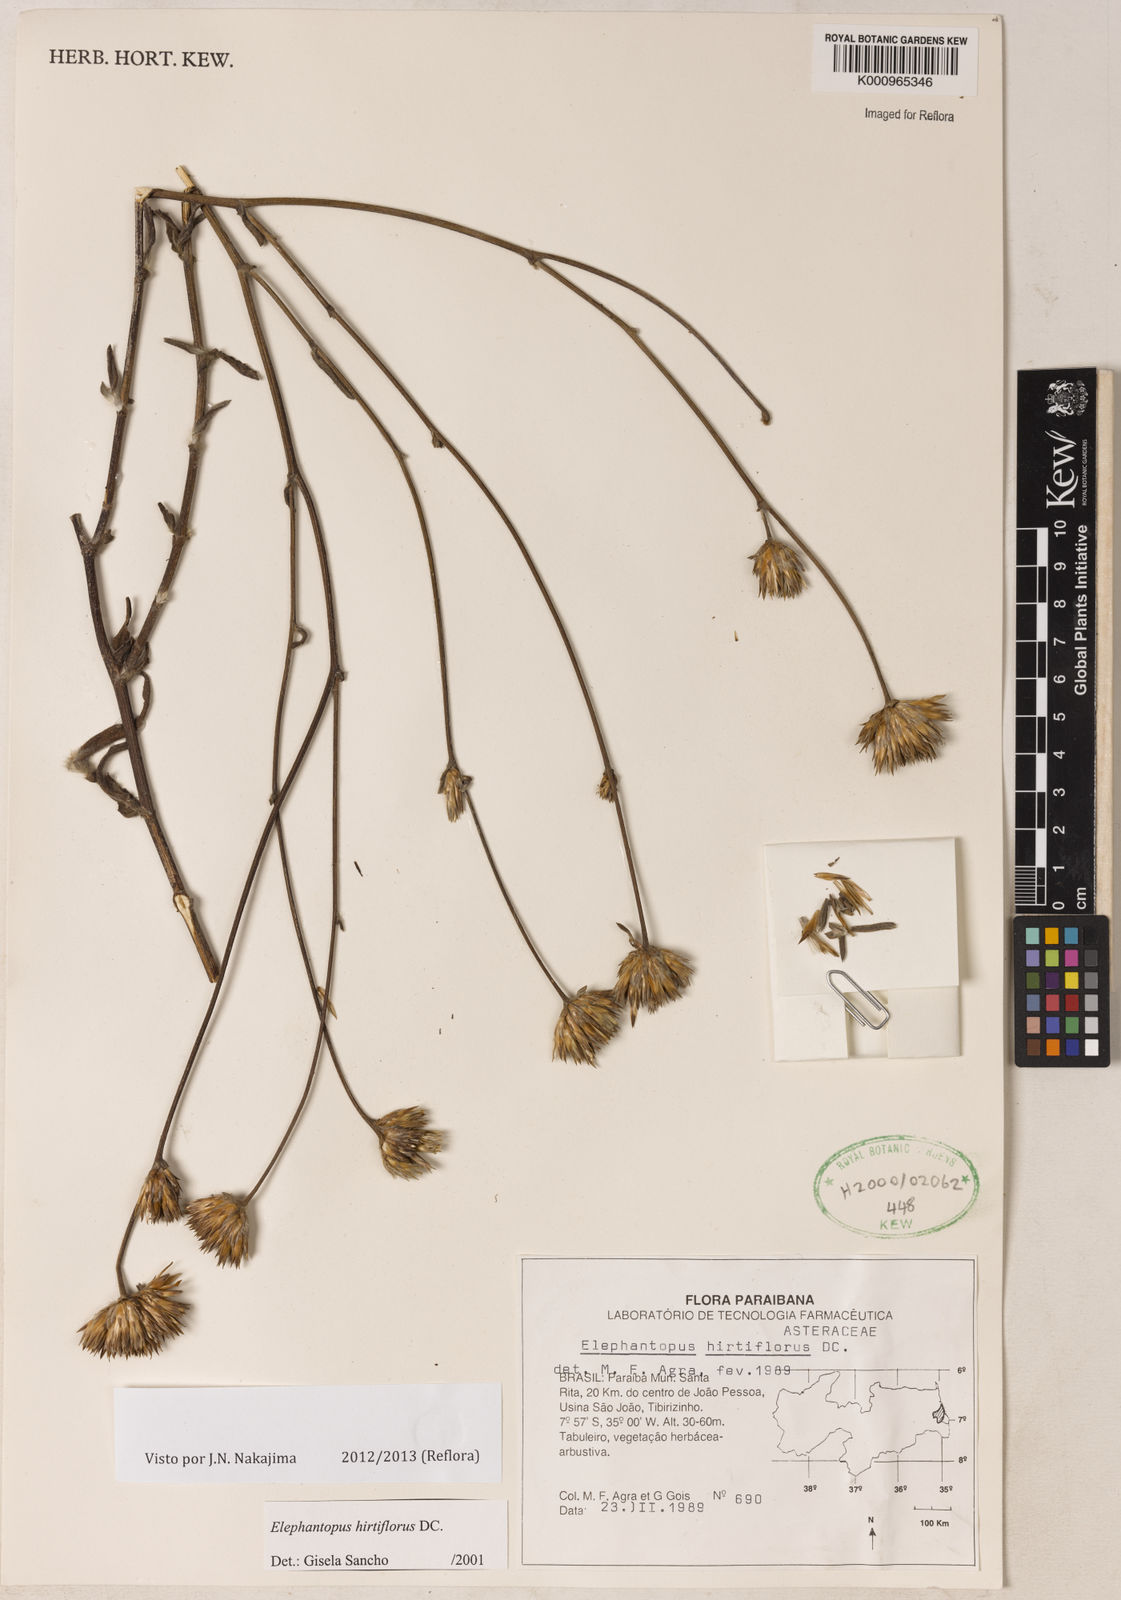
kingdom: Plantae
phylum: Tracheophyta
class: Magnoliopsida
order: Asterales
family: Asteraceae
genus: Orthopappus
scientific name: Orthopappus angustifolius
